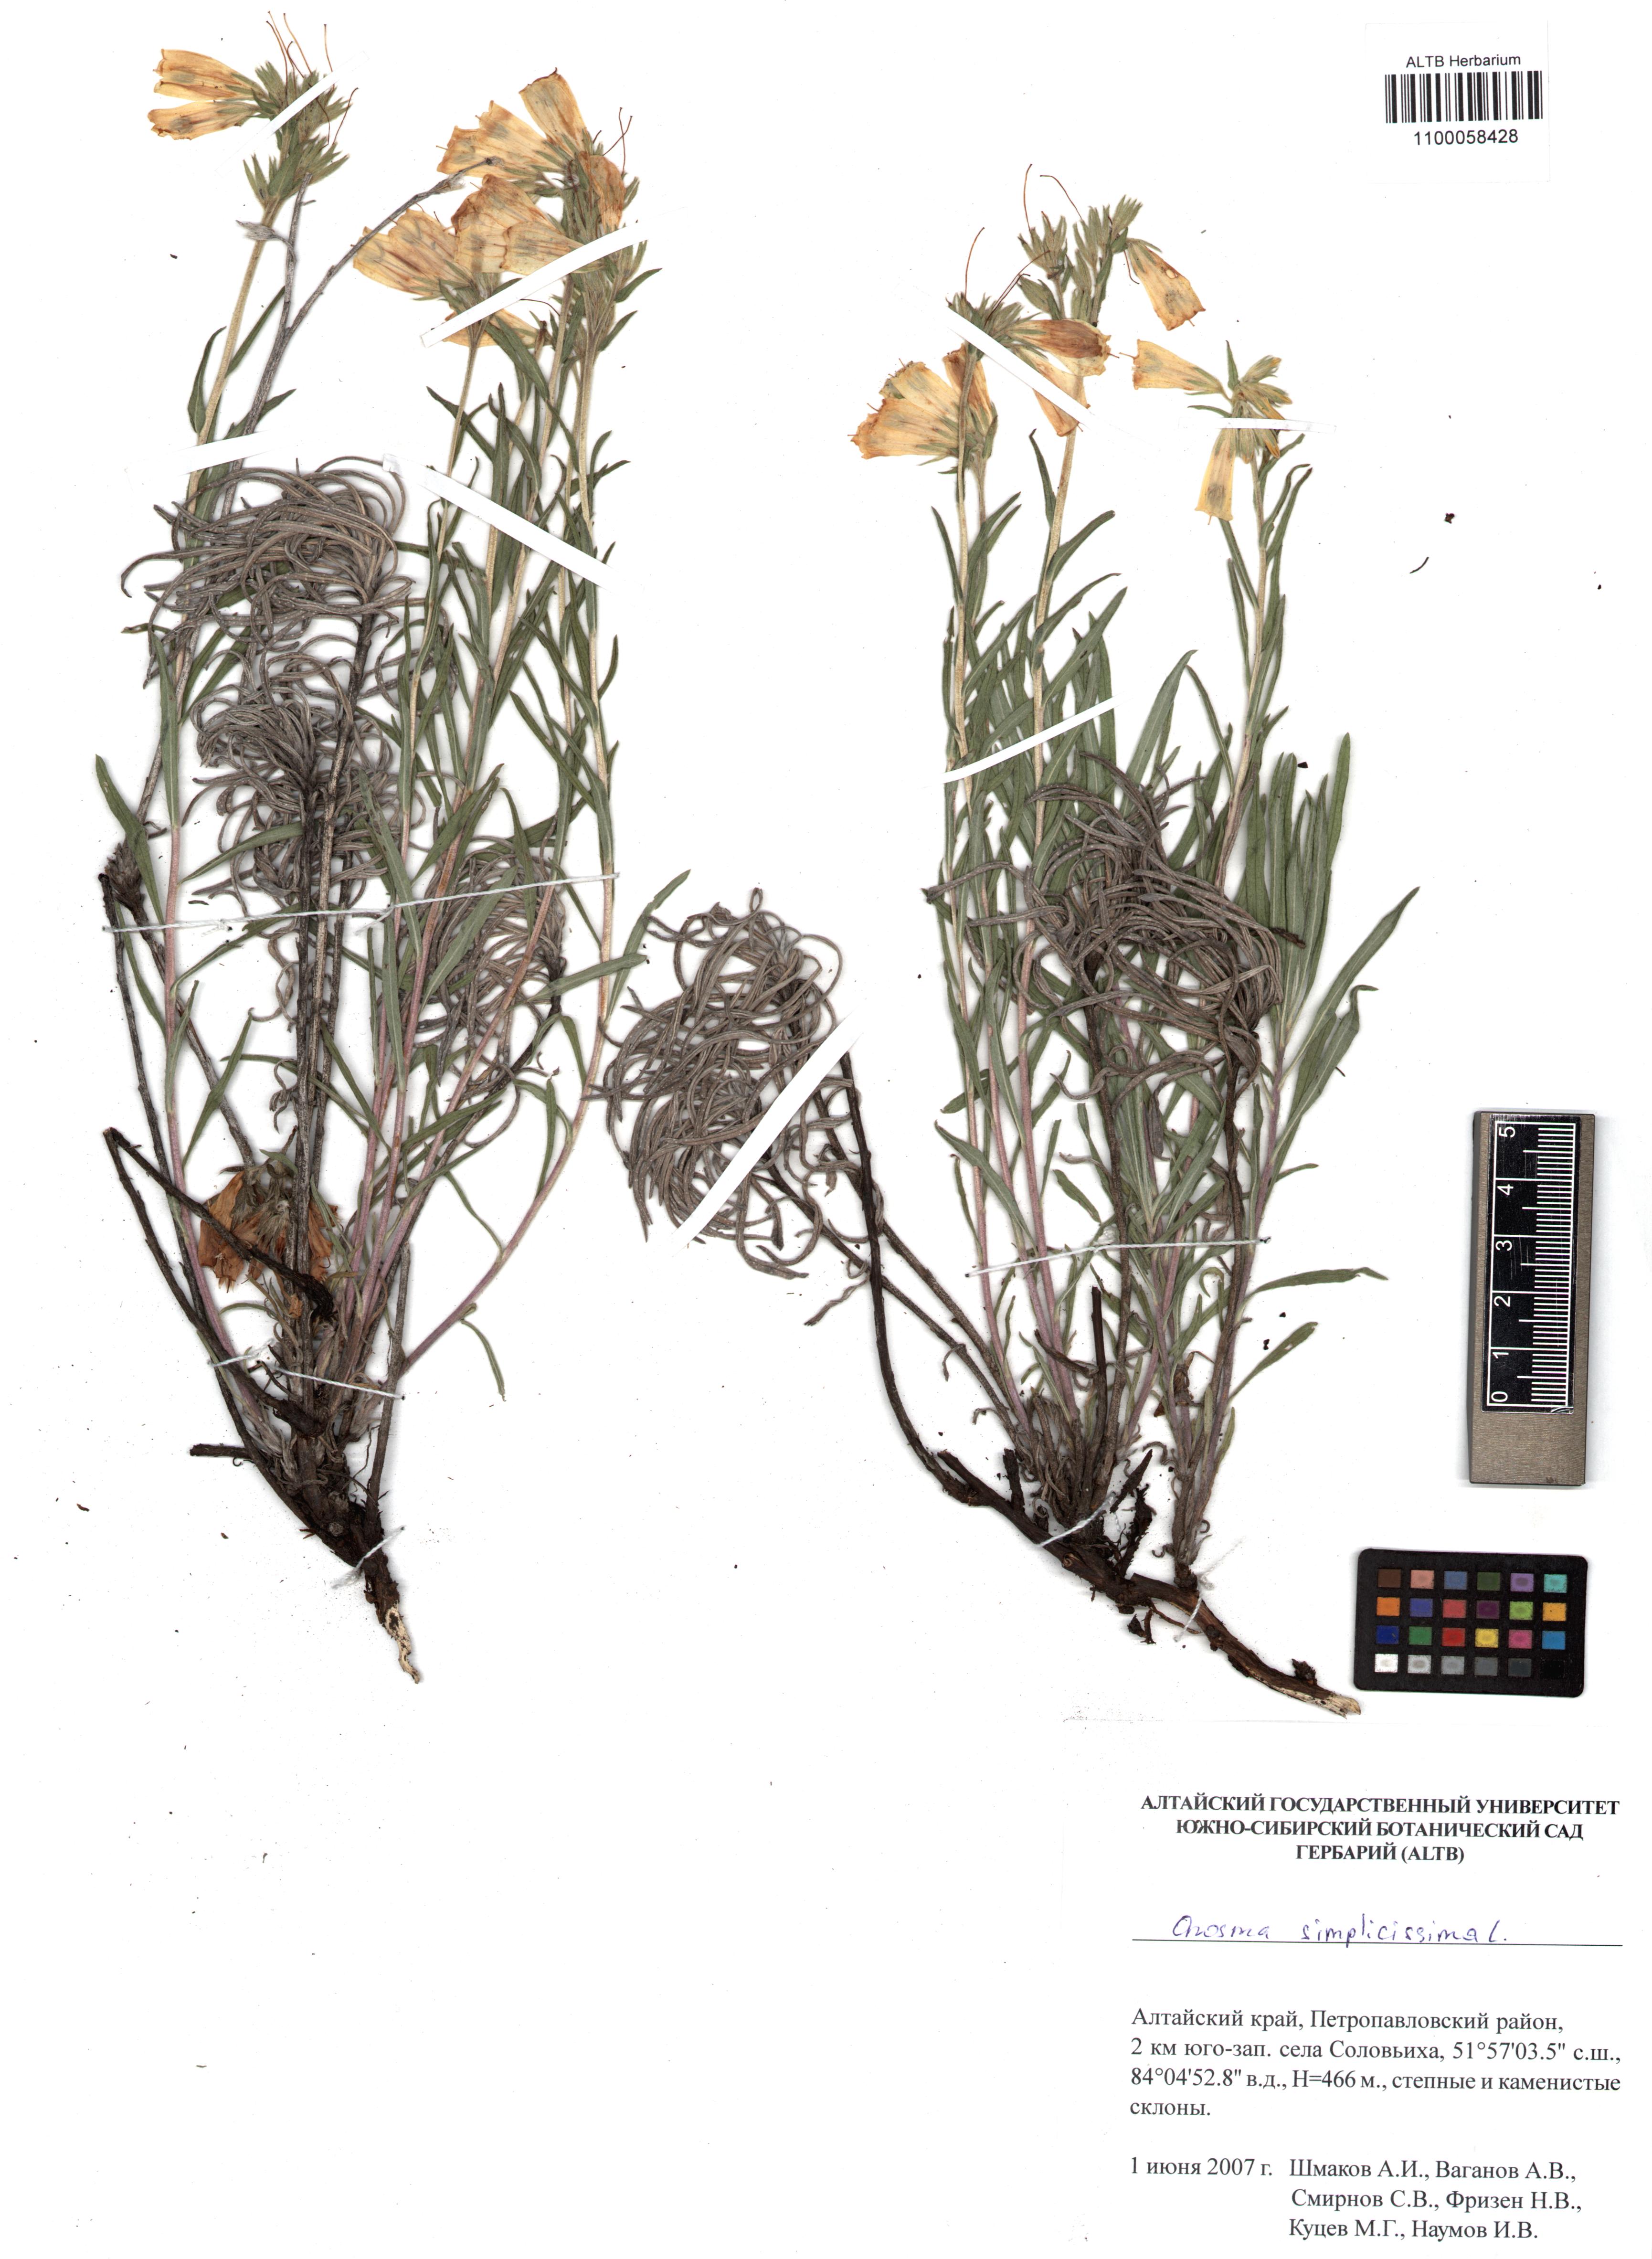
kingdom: Plantae
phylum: Tracheophyta
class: Magnoliopsida
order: Boraginales
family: Boraginaceae
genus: Onosma
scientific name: Onosma simplicissima
